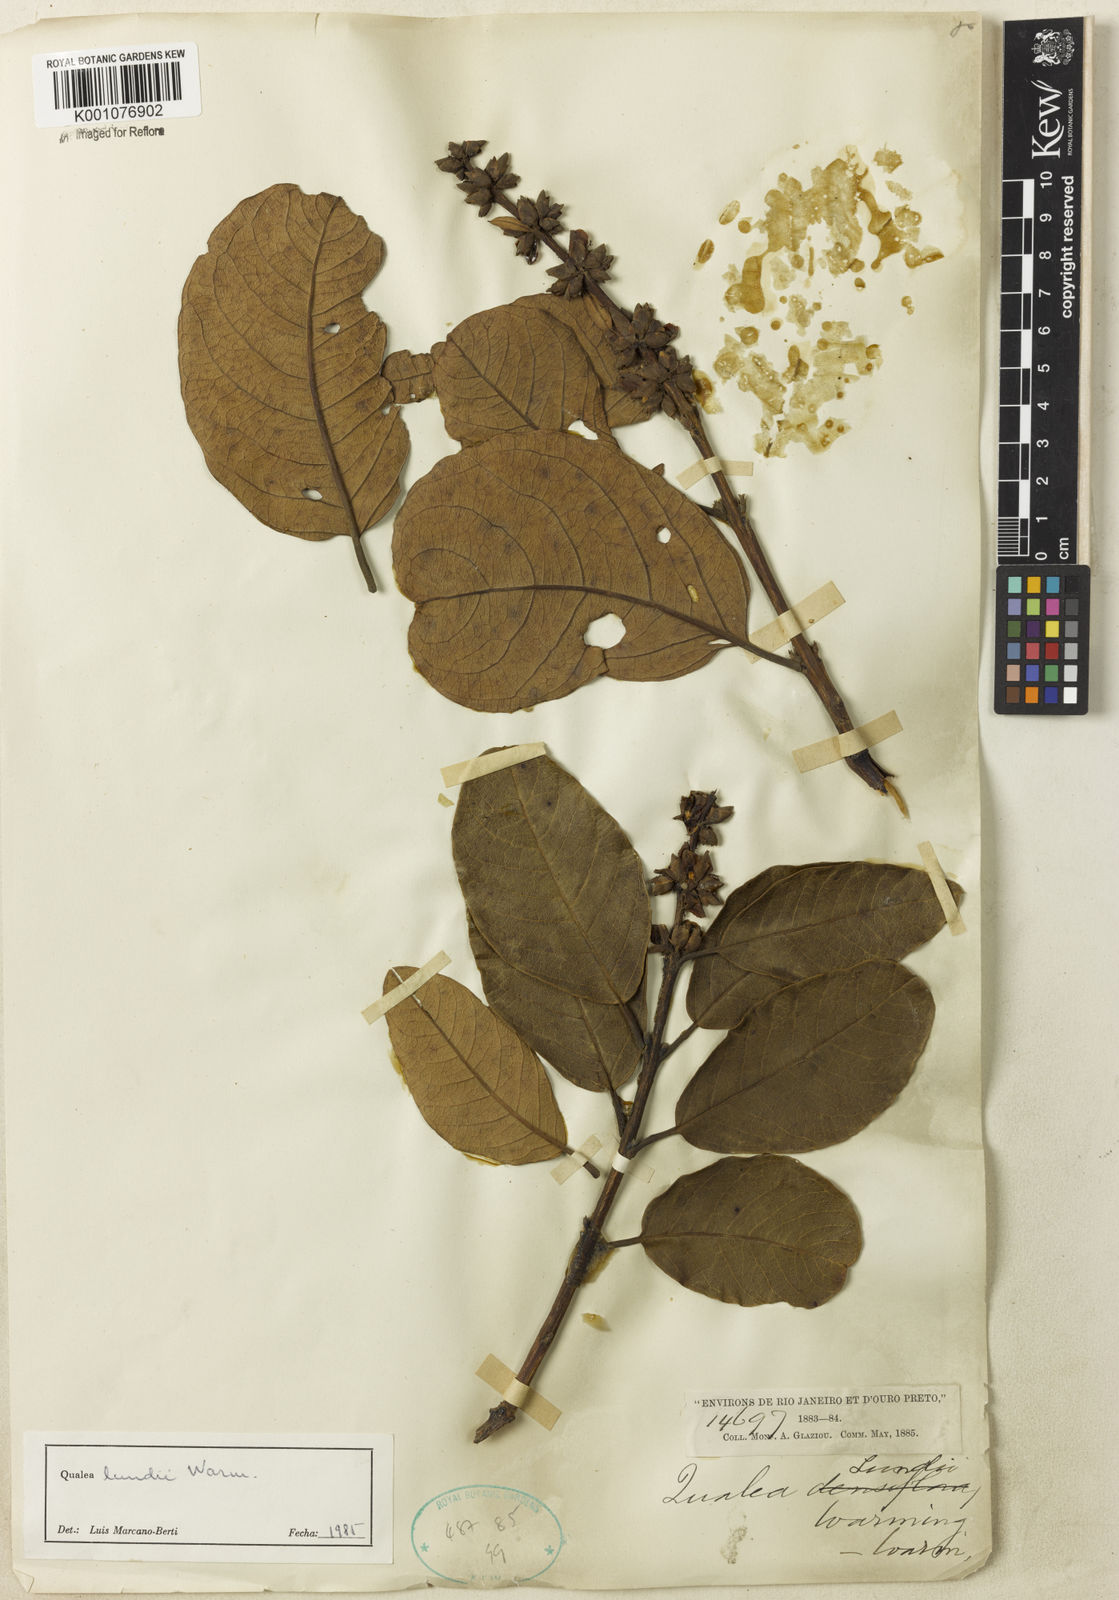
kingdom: Plantae
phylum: Tracheophyta
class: Magnoliopsida
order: Myrtales
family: Vochysiaceae
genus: Qualea
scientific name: Qualea lundii
